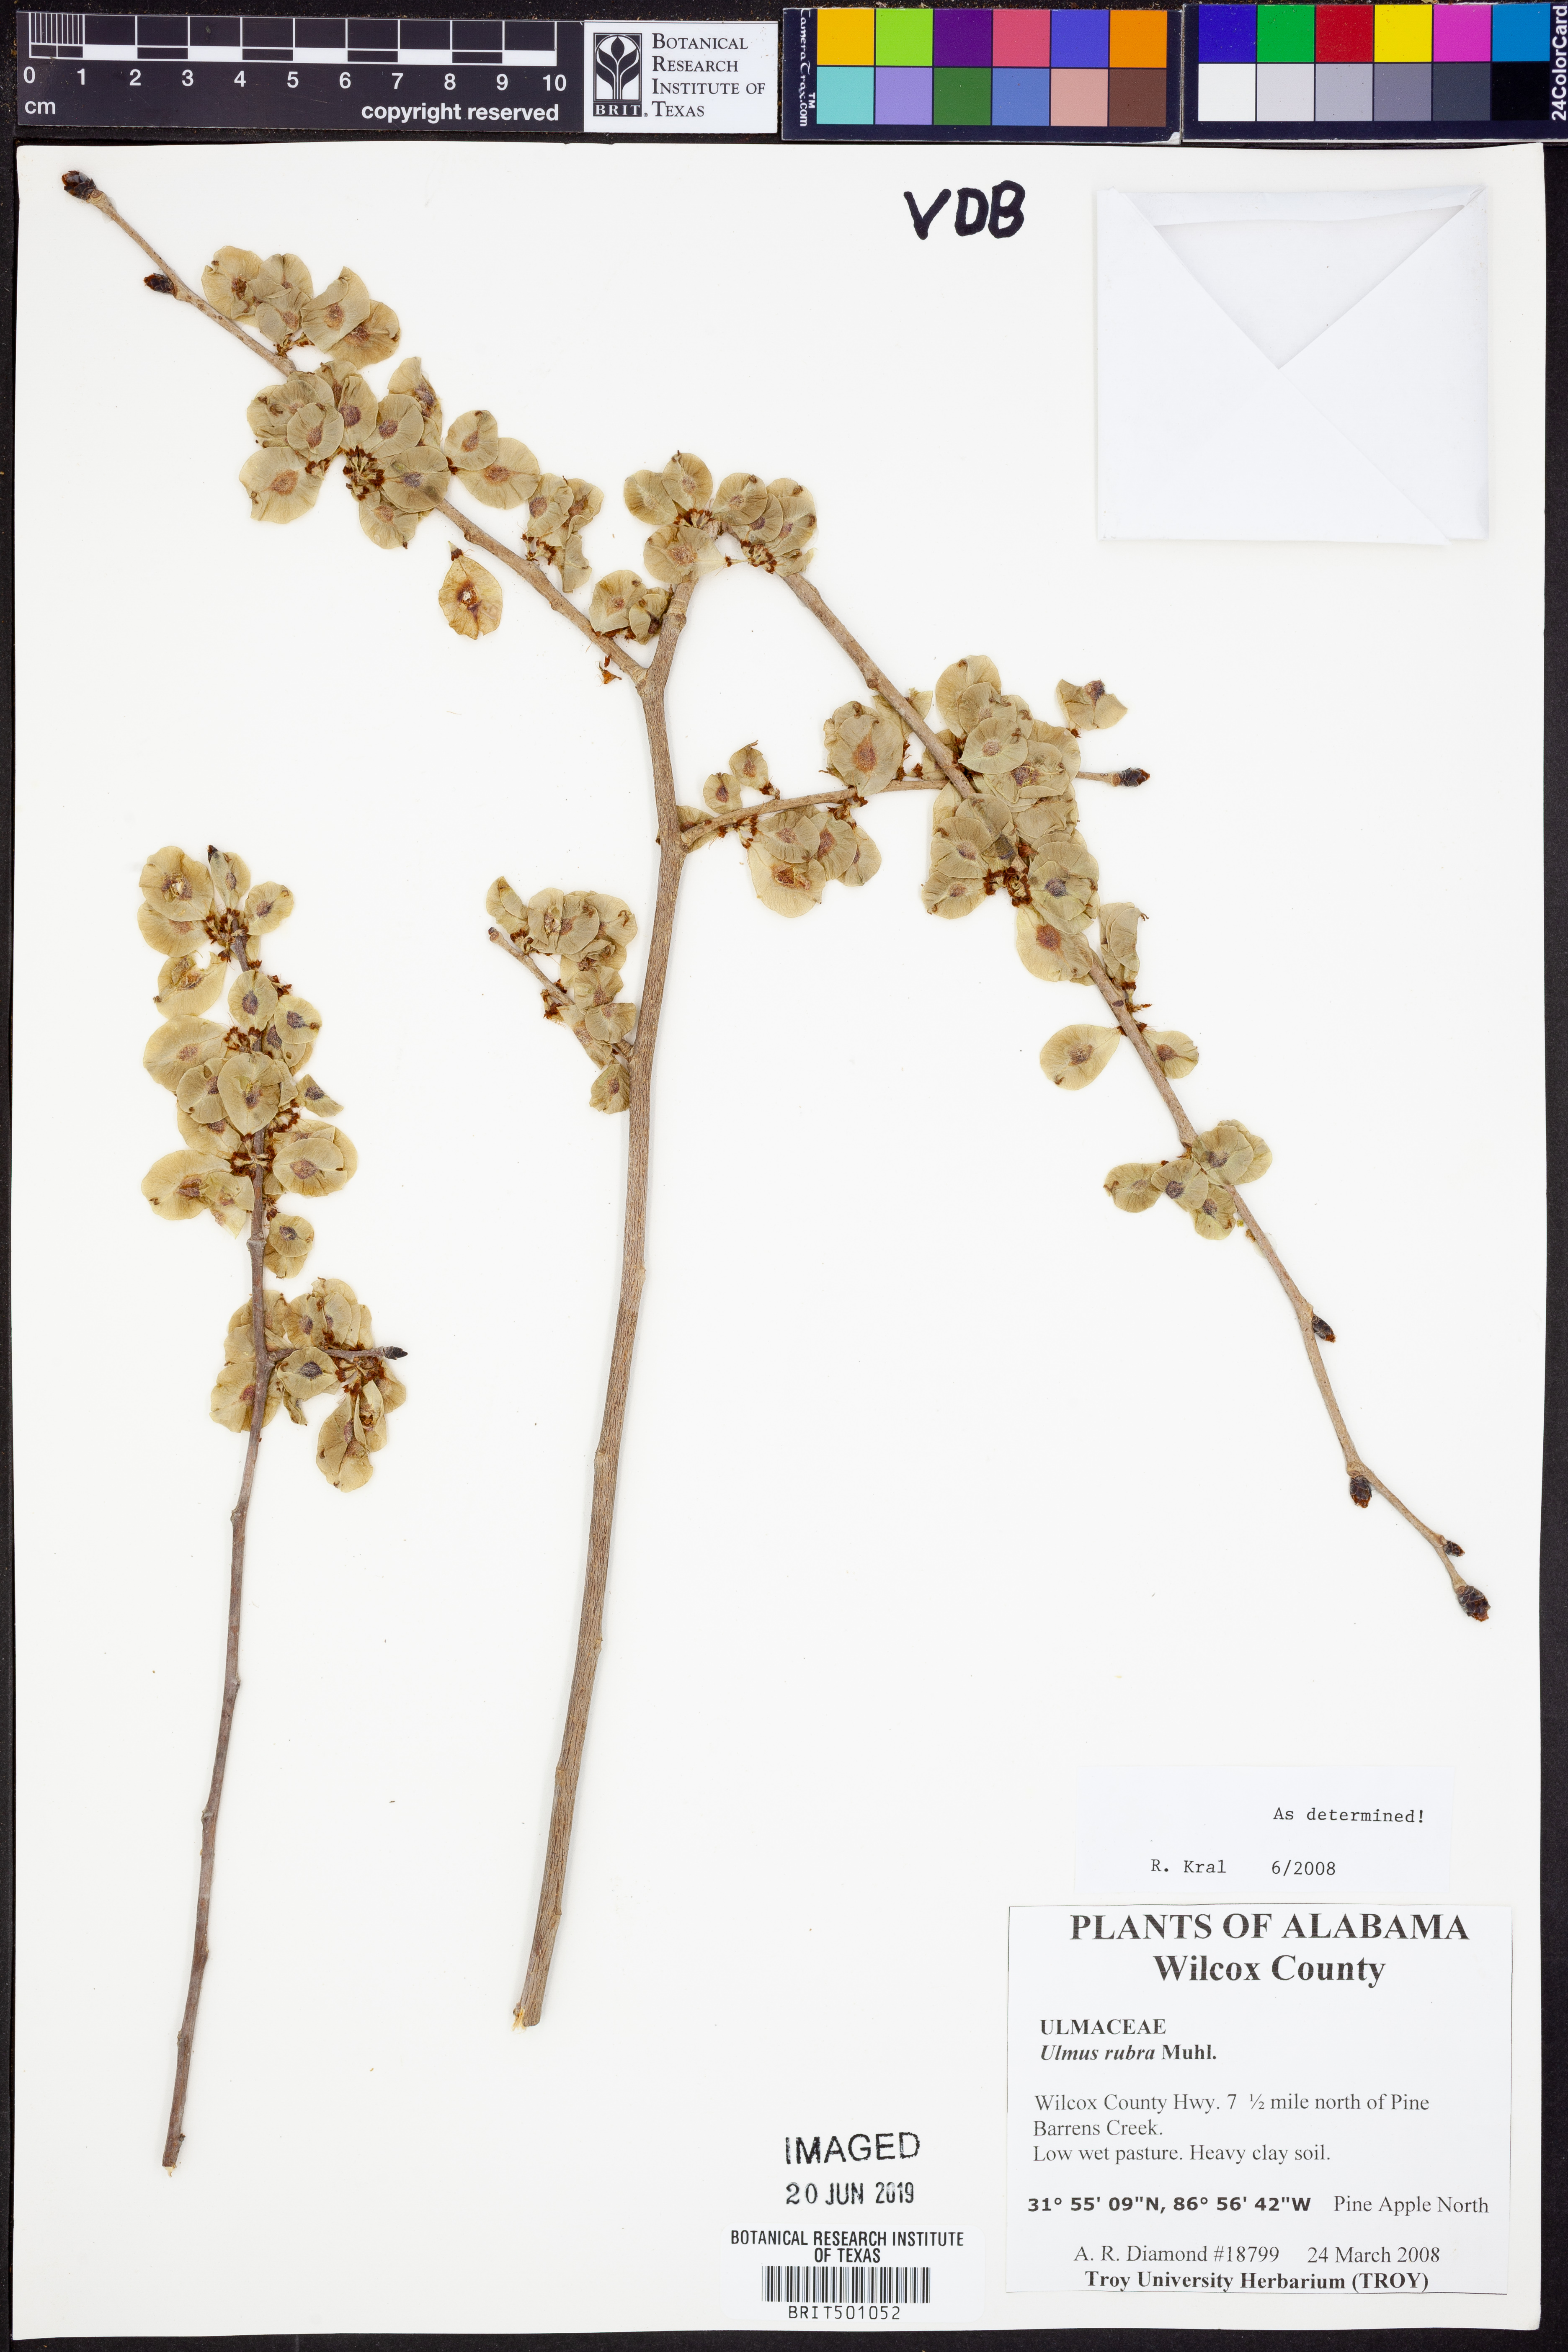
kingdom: Plantae
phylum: Tracheophyta
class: Magnoliopsida
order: Rosales
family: Ulmaceae
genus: Ulmus
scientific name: Ulmus rubra
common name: Slippery elm
